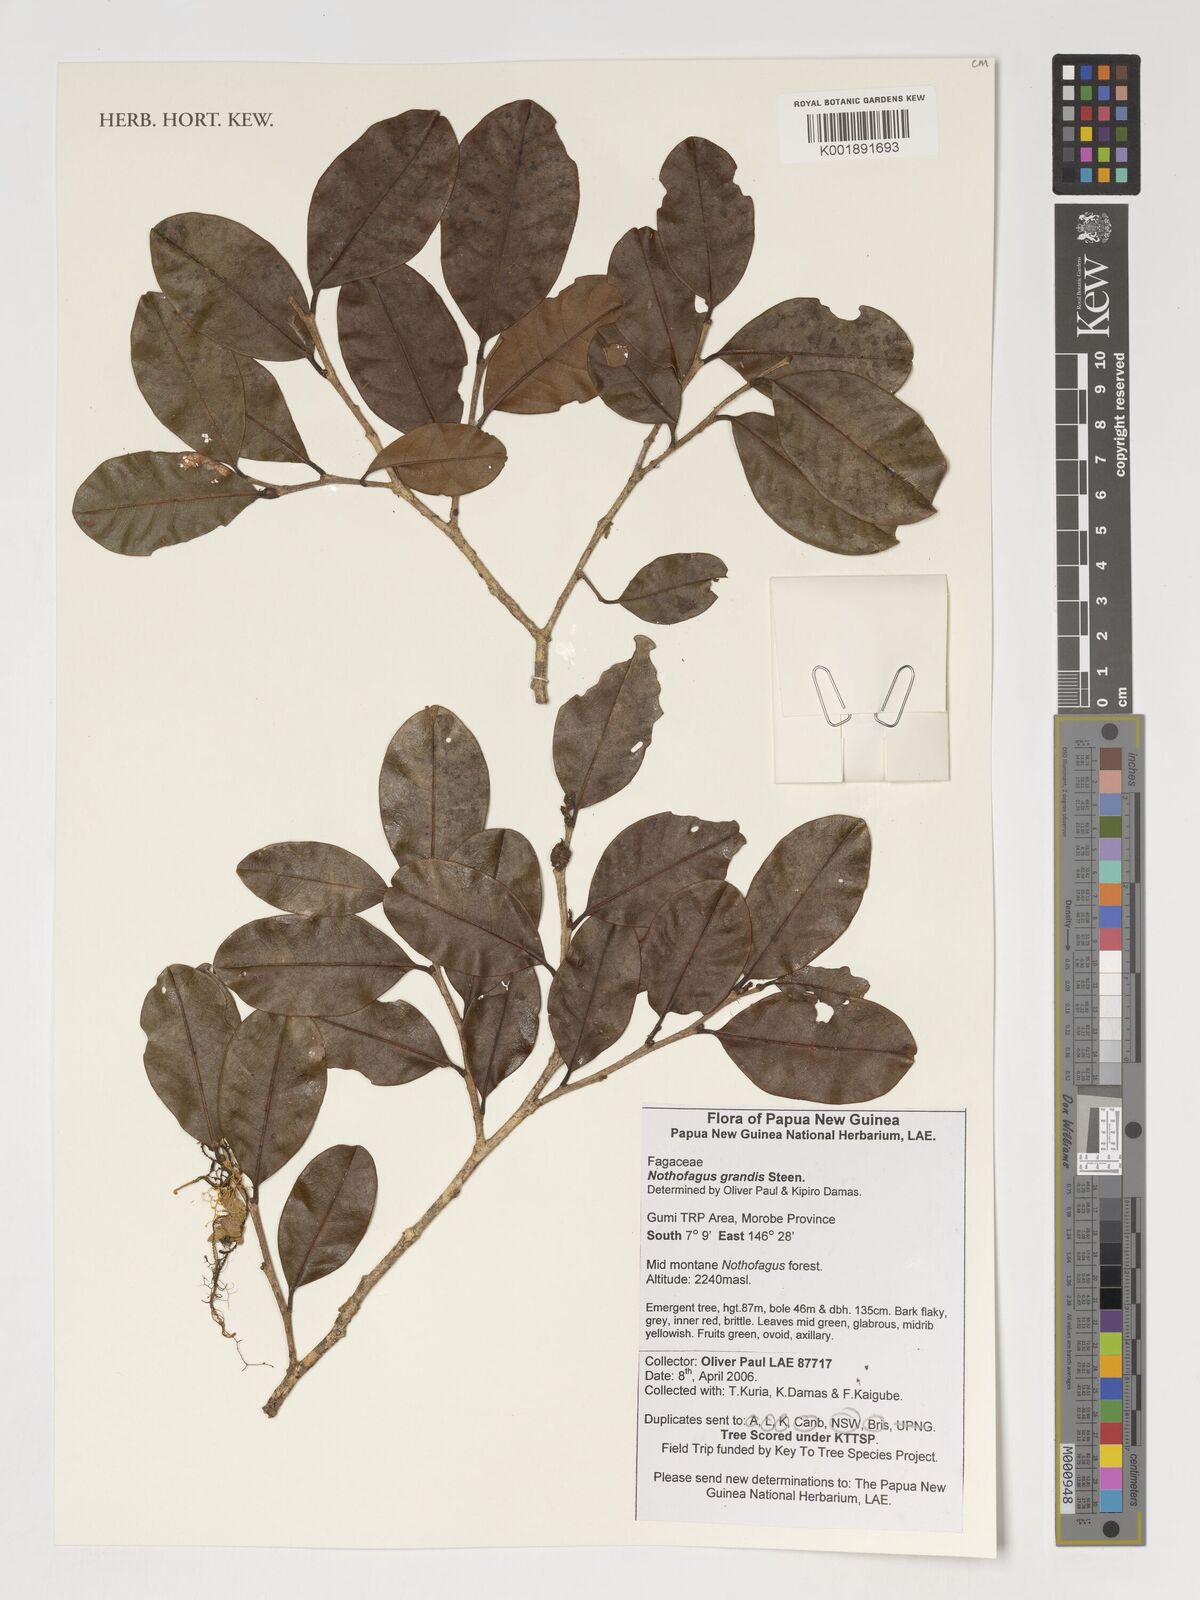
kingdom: Plantae
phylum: Tracheophyta
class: Magnoliopsida
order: Fagales
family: Nothofagaceae
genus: Nothofagus
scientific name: Nothofagus grandis
